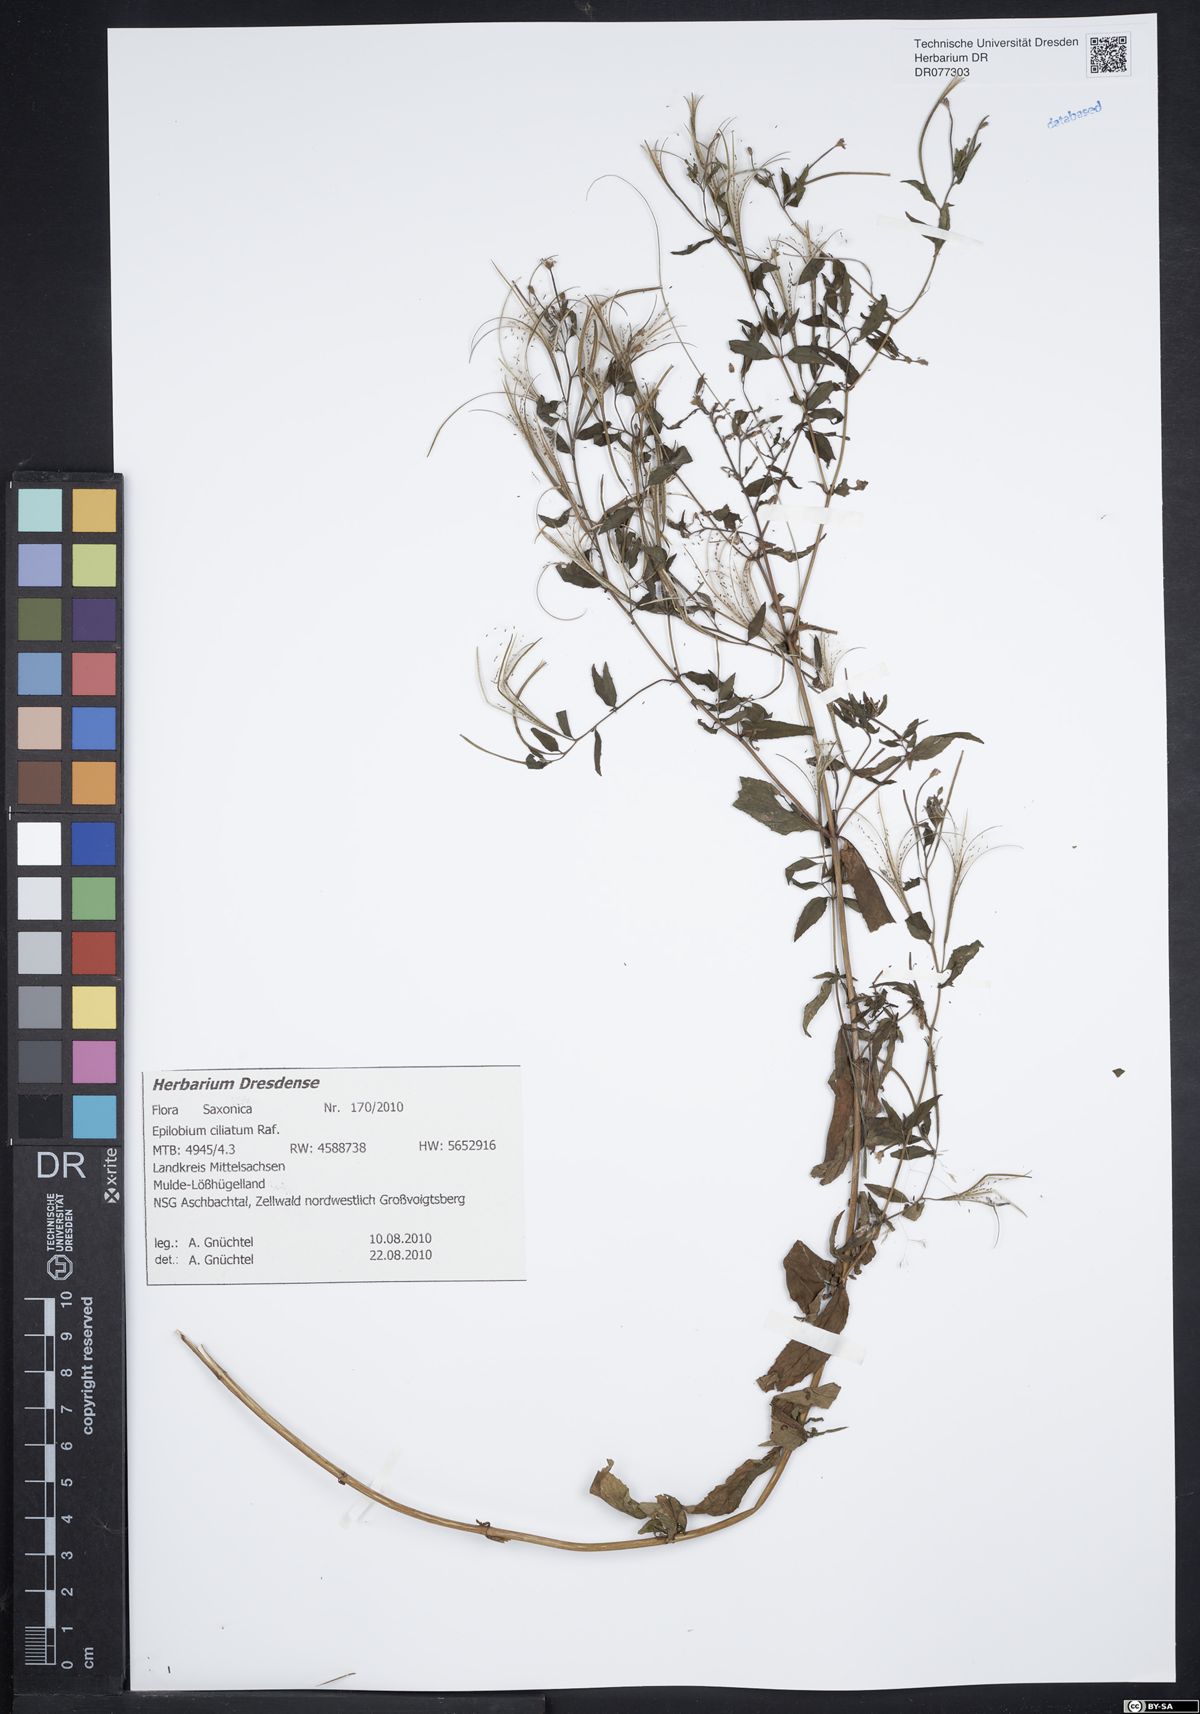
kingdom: Plantae
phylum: Tracheophyta
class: Magnoliopsida
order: Myrtales
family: Onagraceae
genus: Epilobium
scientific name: Epilobium ciliatum
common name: American willowherb
